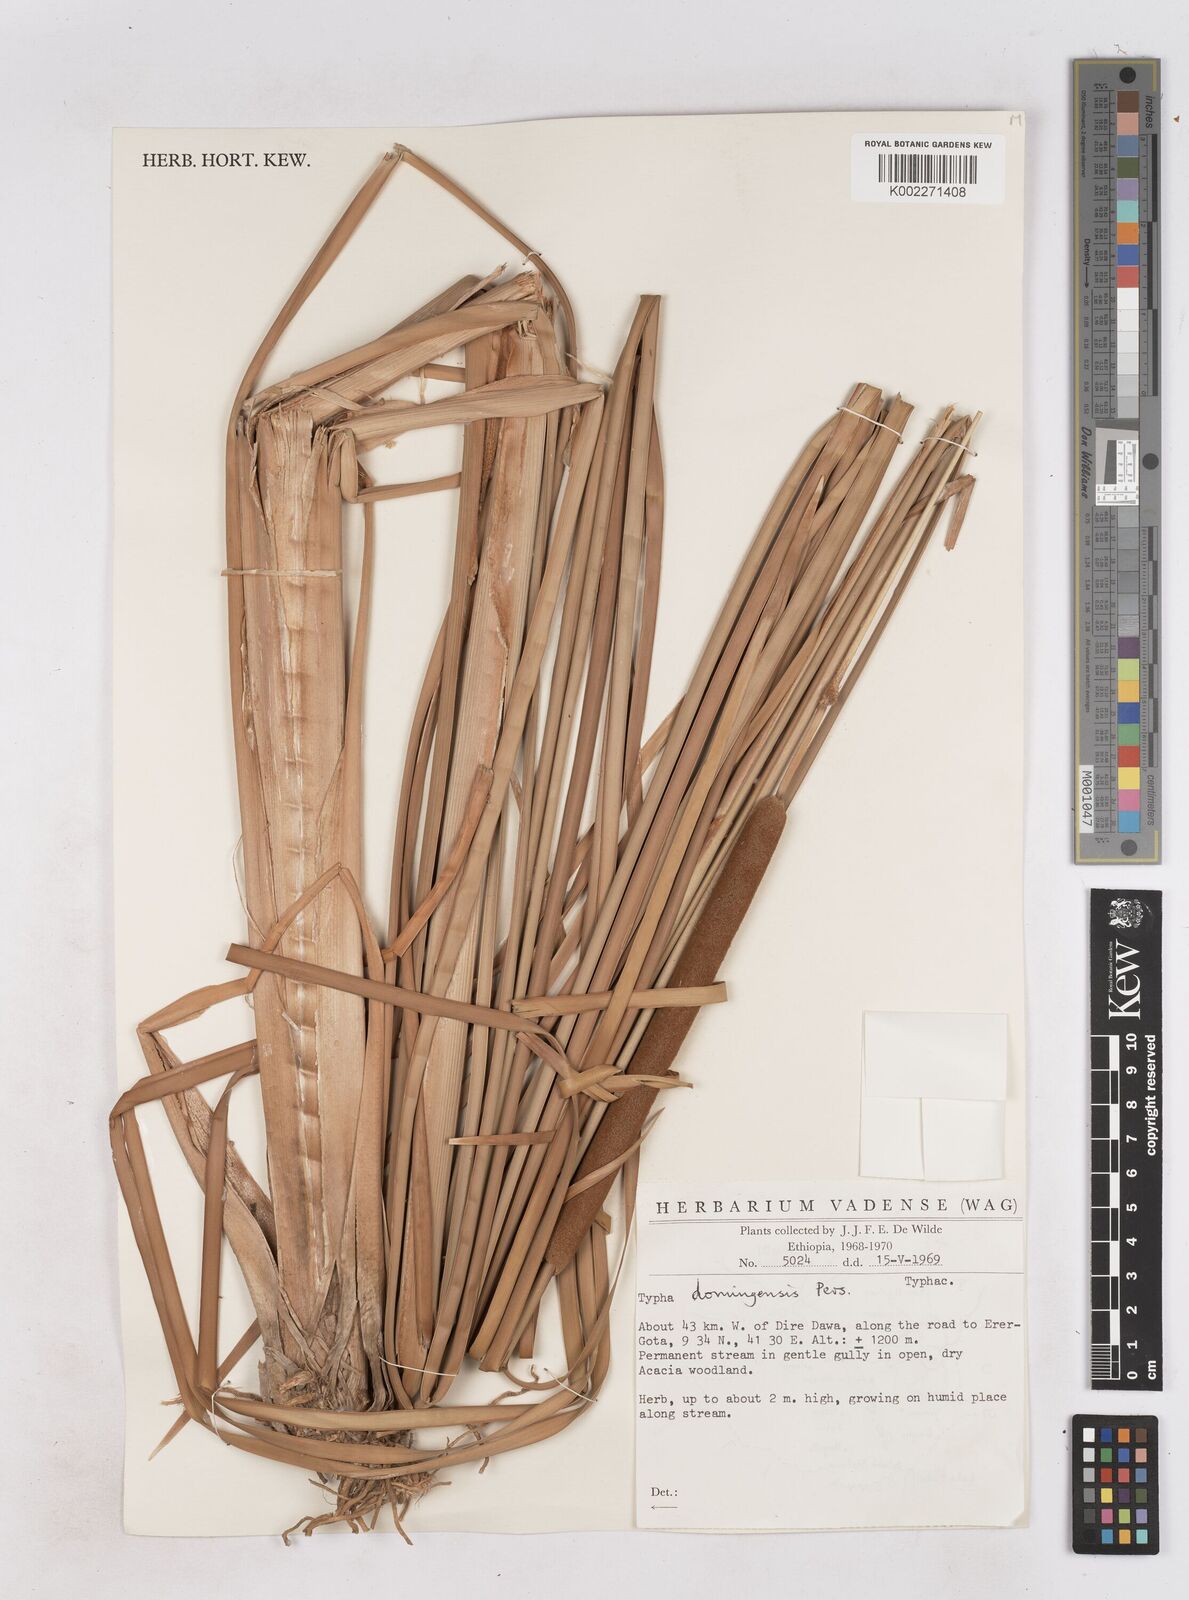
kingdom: Plantae
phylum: Tracheophyta
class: Liliopsida
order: Poales
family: Typhaceae
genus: Typha
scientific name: Typha domingensis
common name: Southern cattail
